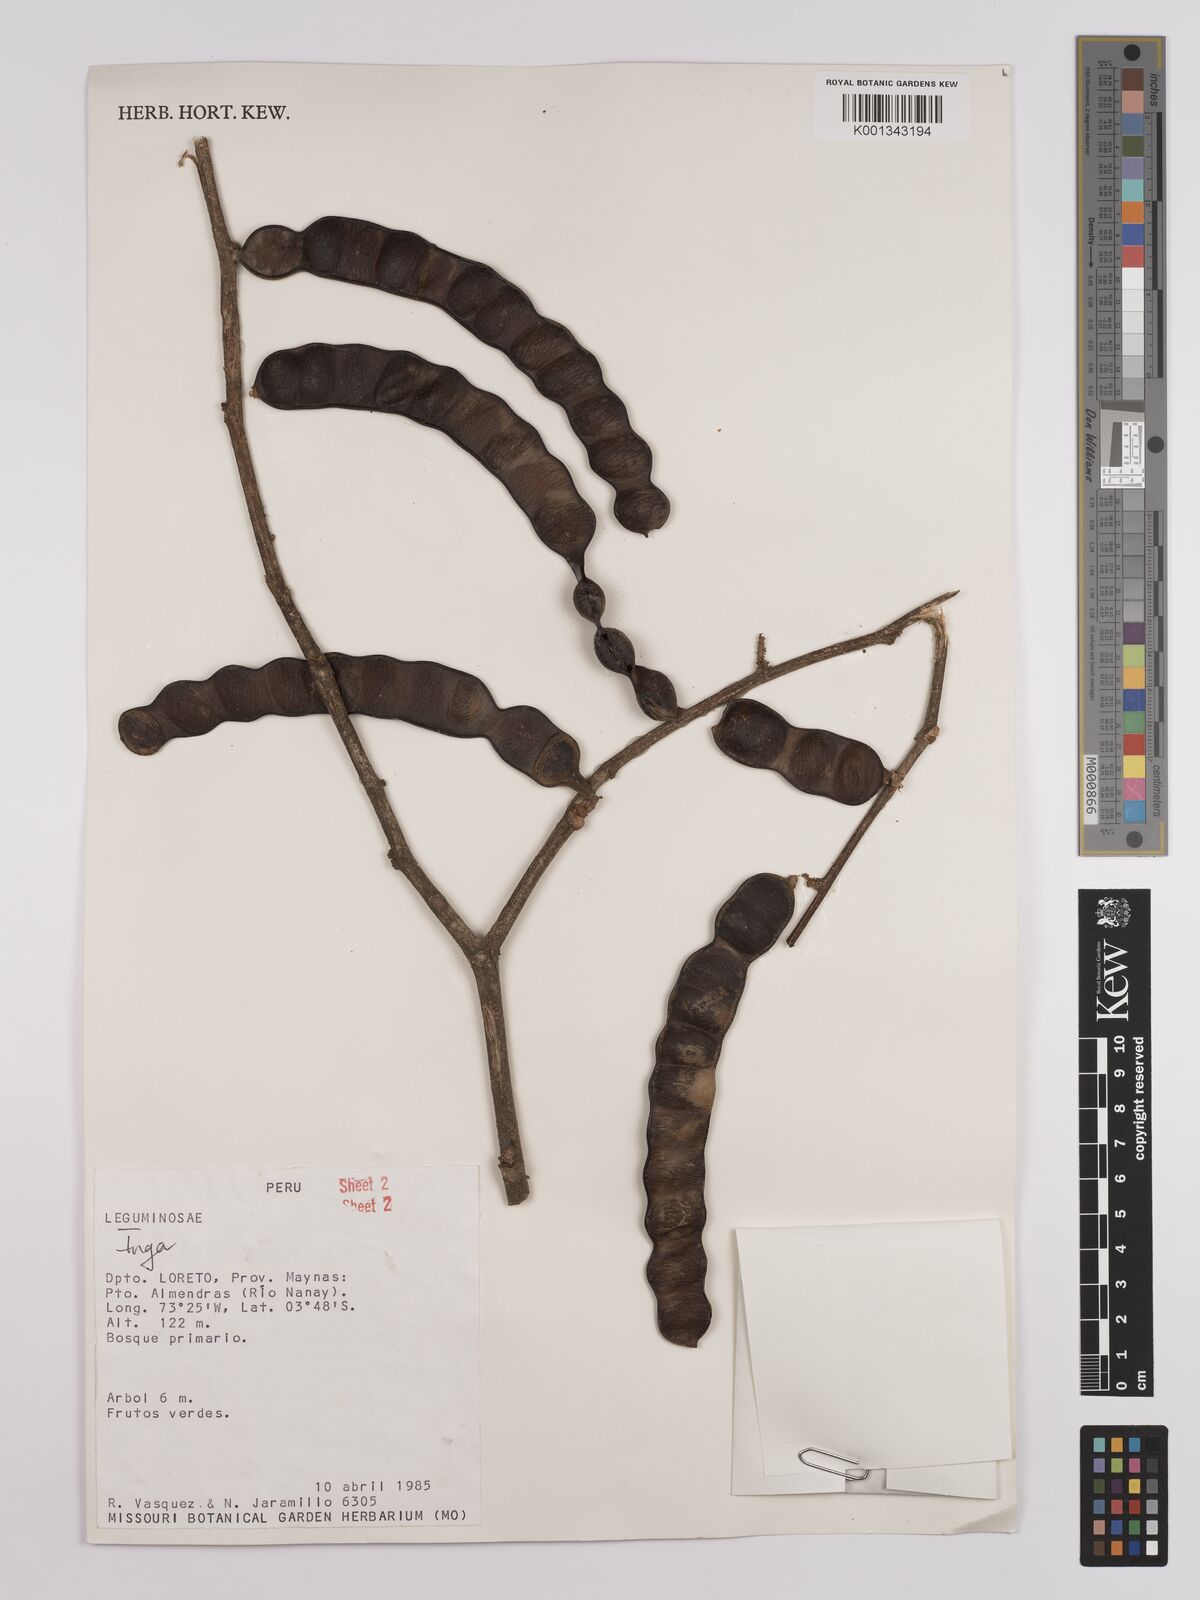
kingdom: Plantae
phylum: Tracheophyta
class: Magnoliopsida
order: Fabales
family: Fabaceae
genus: Inga
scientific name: Inga brachyrhachis
